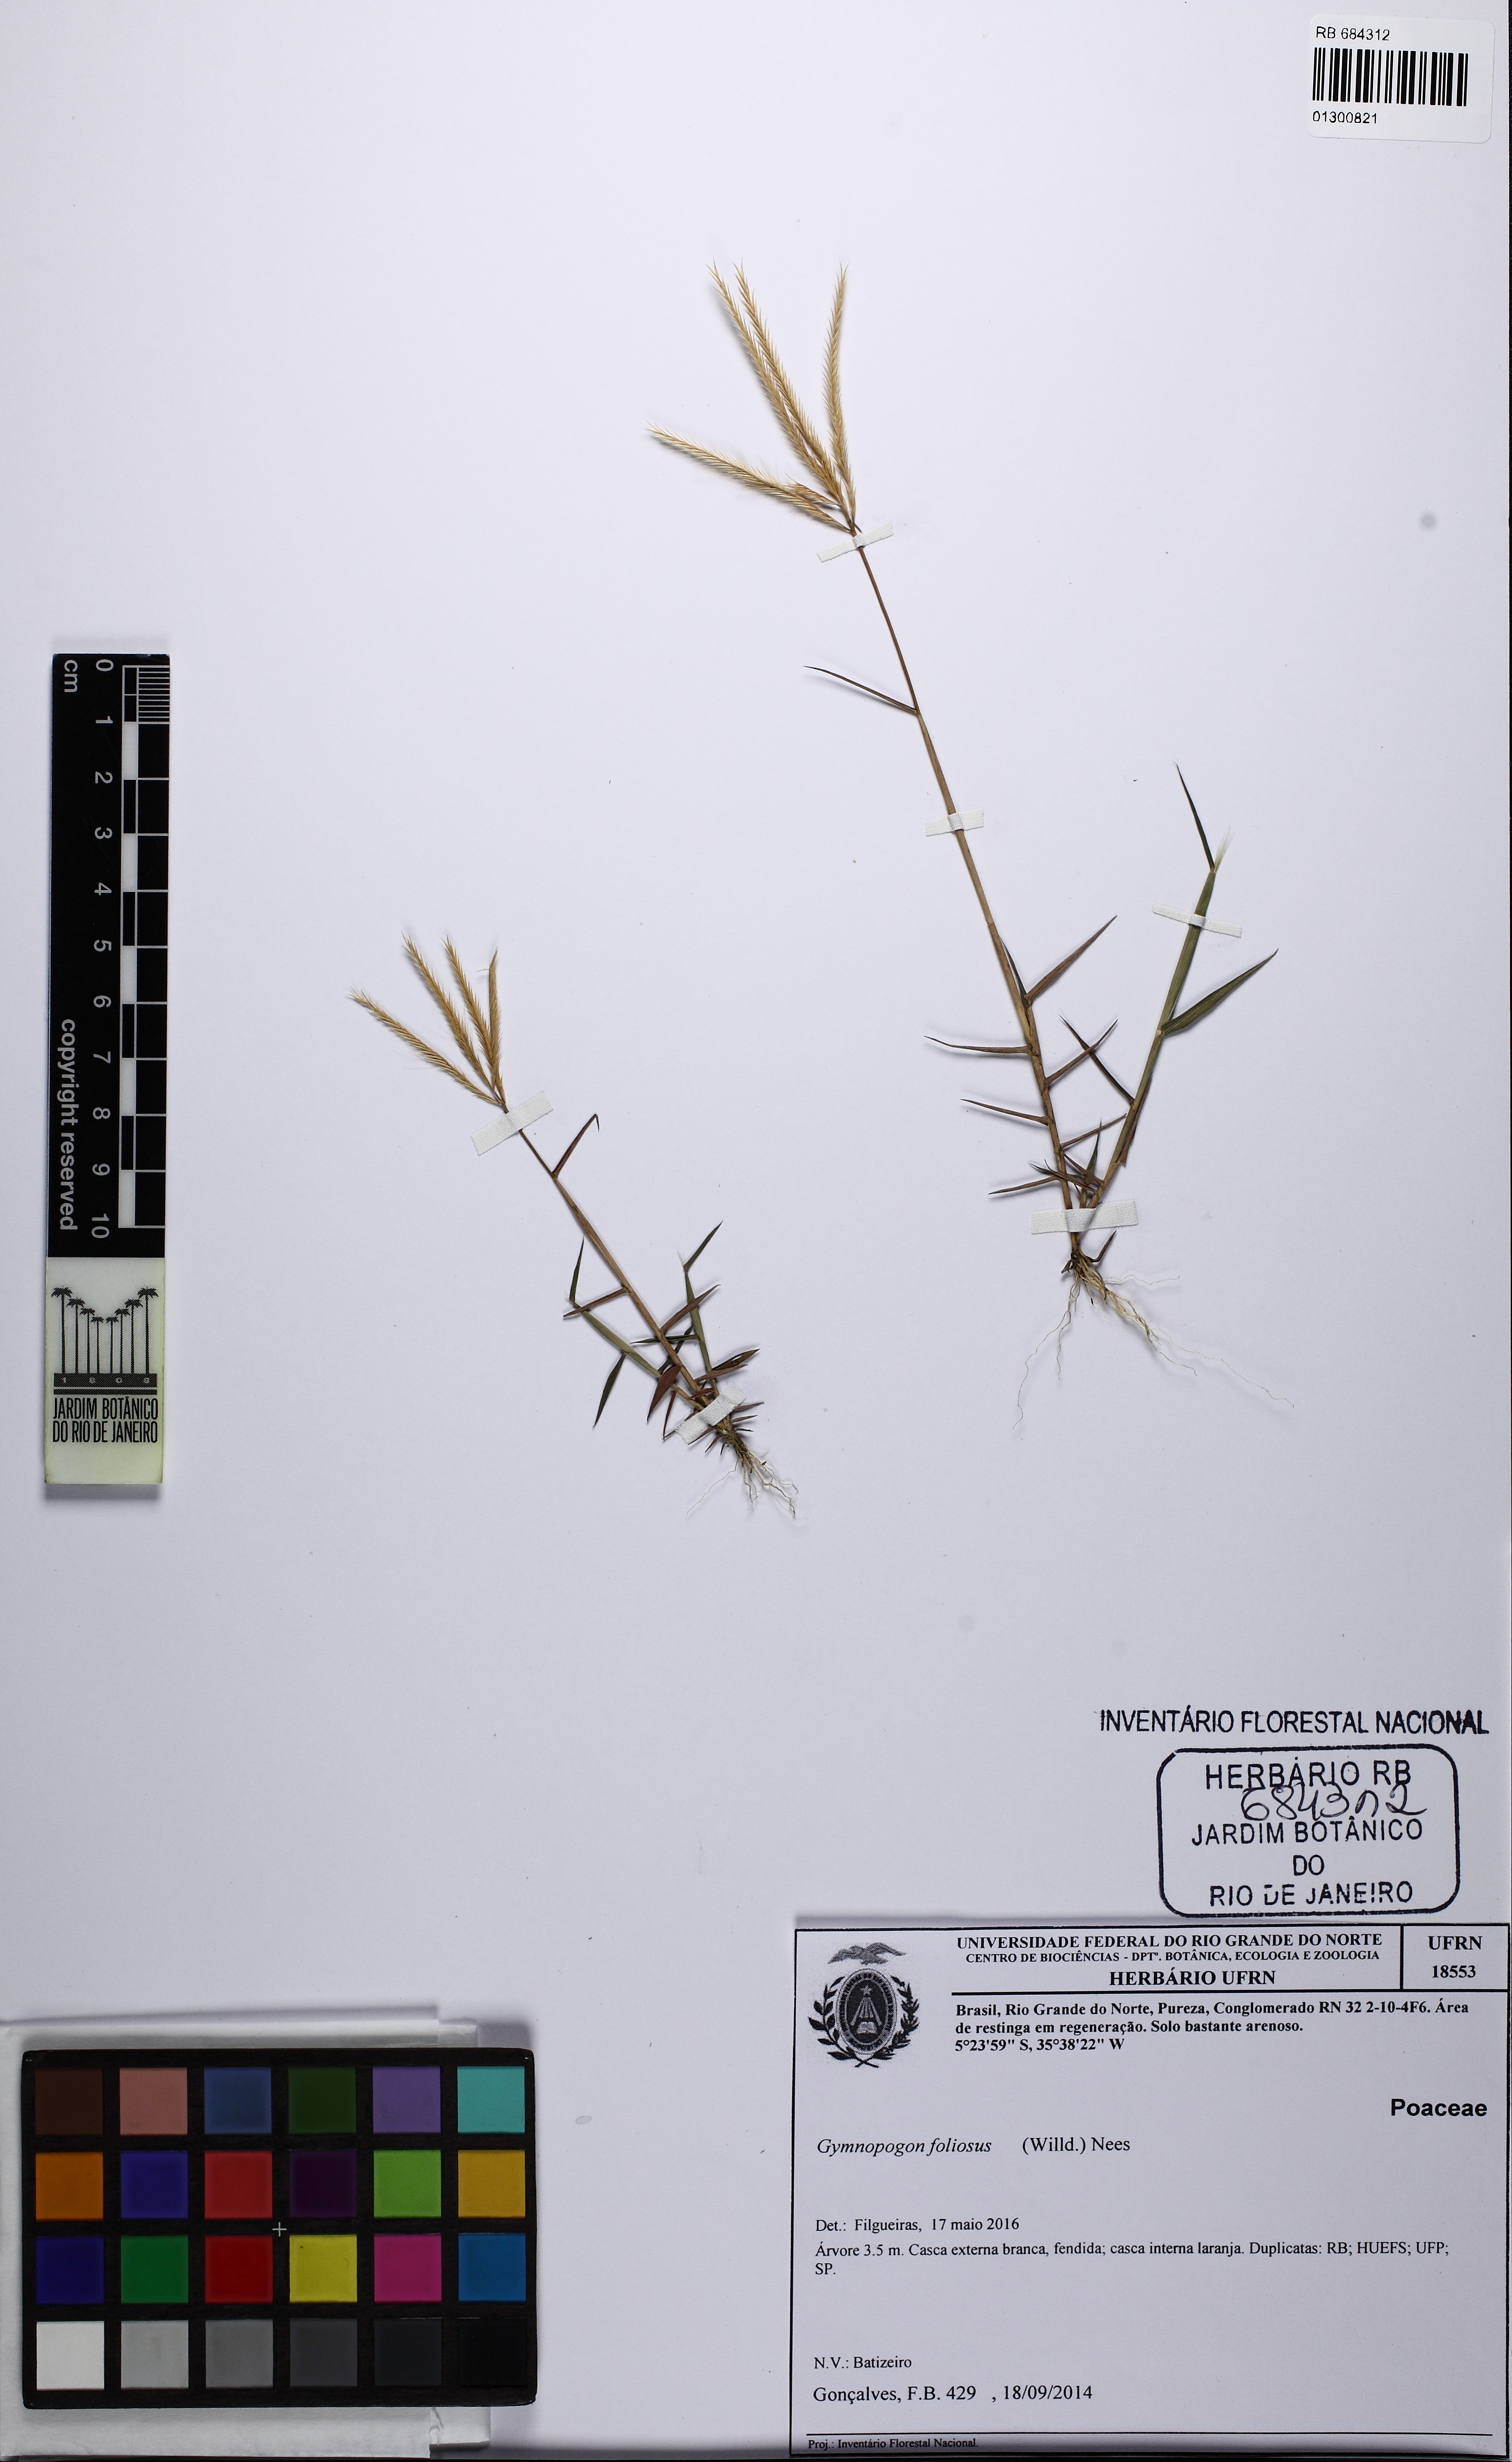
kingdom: Plantae
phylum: Tracheophyta
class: Liliopsida
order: Poales
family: Poaceae
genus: Gymnopogon
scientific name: Gymnopogon foliosus
